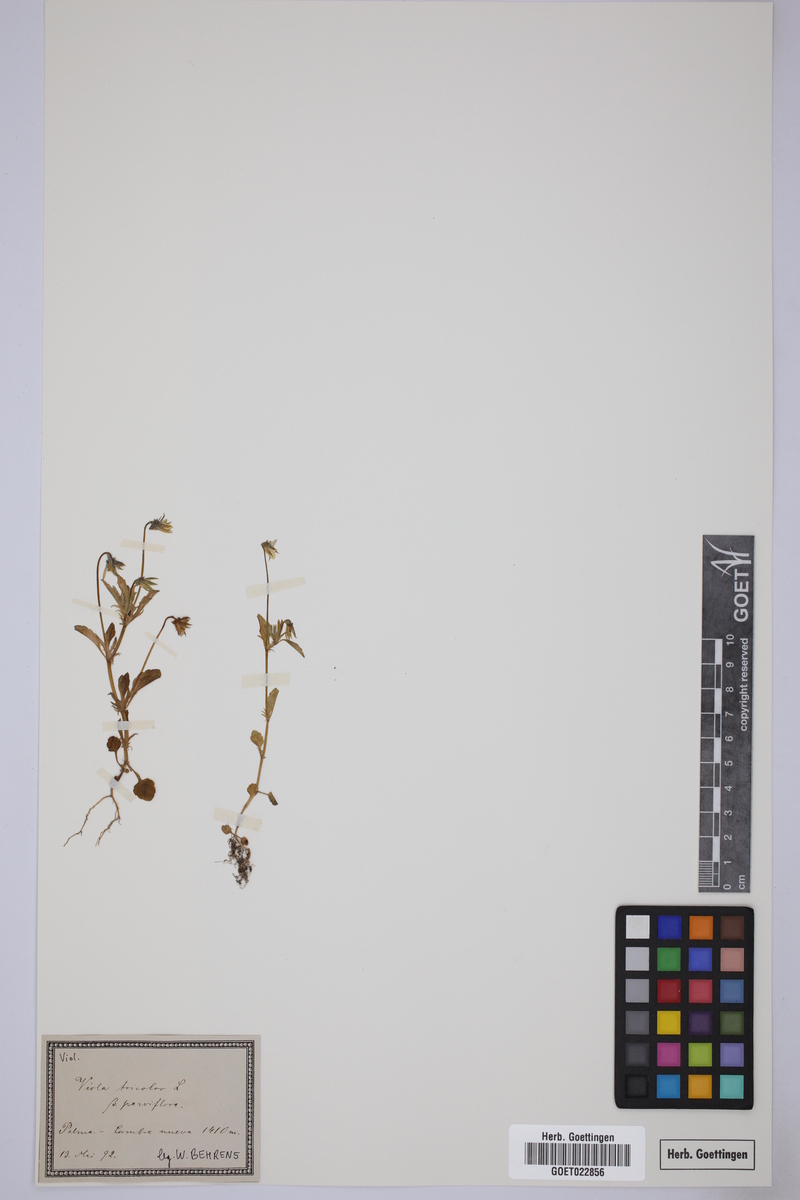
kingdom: Plantae
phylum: Tracheophyta
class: Magnoliopsida
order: Malpighiales
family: Violaceae
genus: Viola
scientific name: Viola
